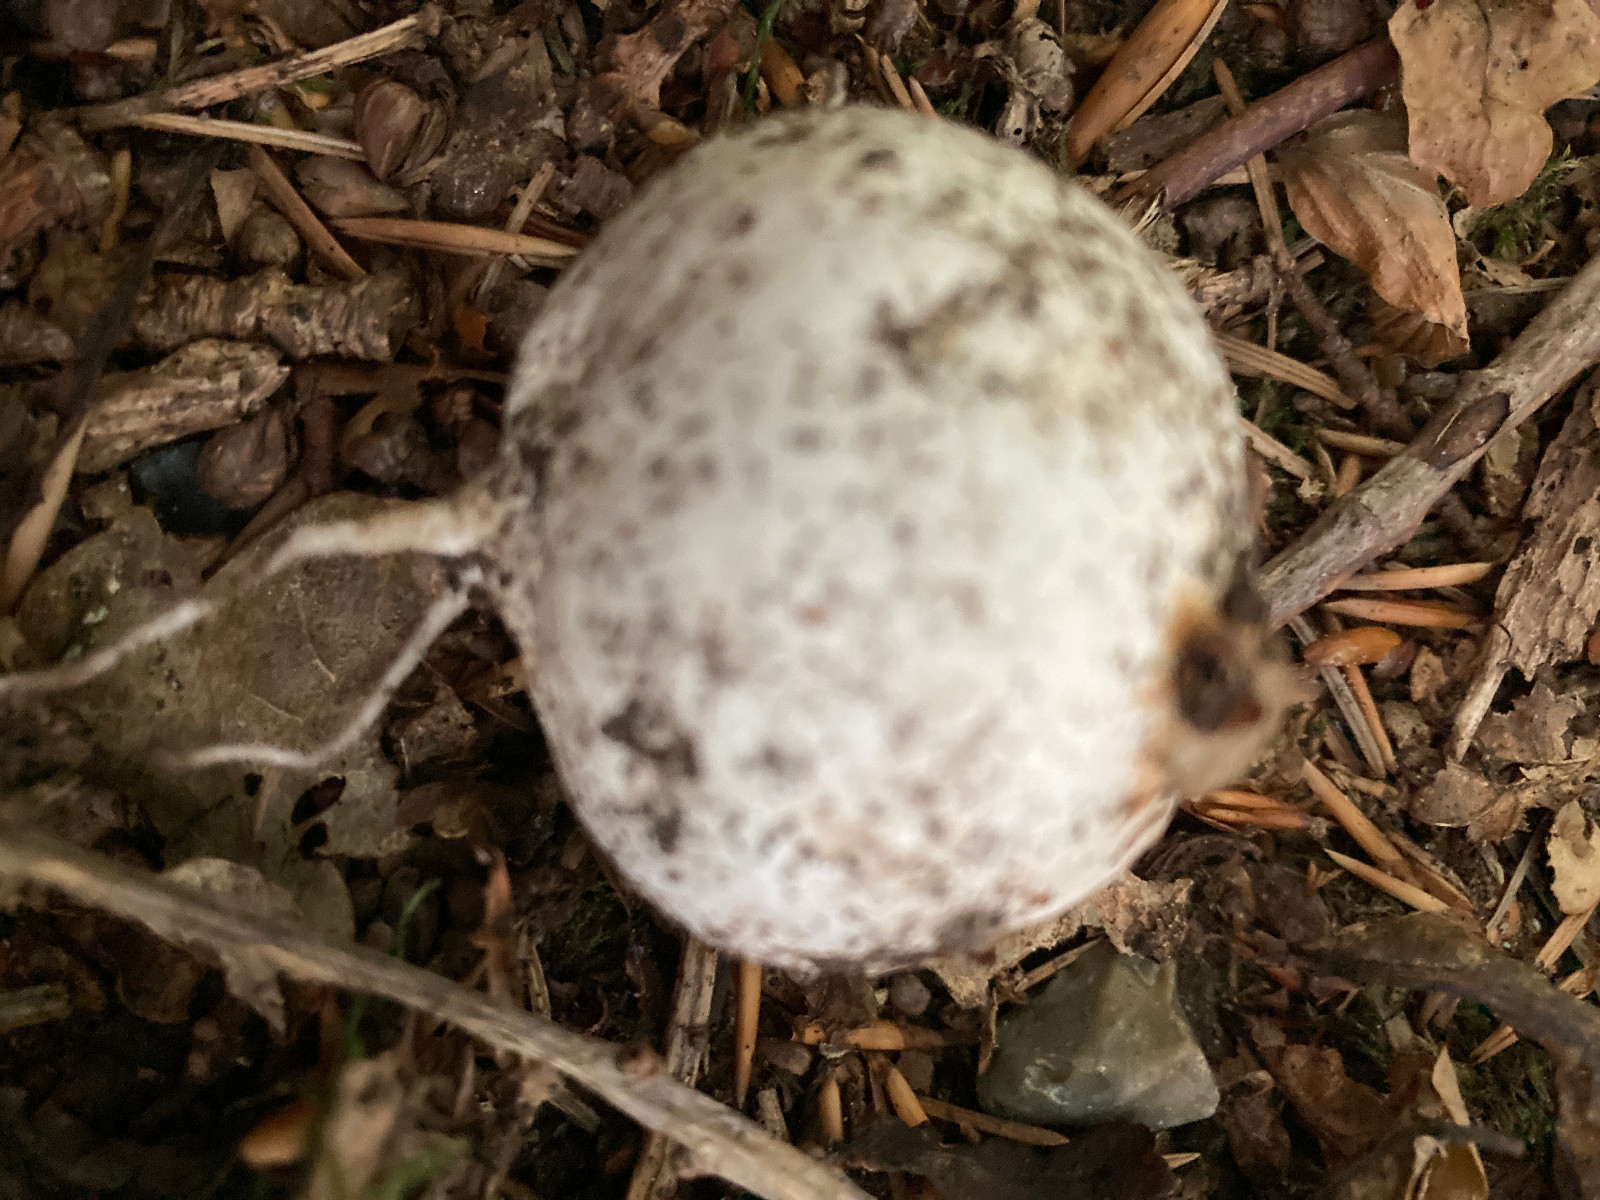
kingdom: Fungi
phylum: Basidiomycota
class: Agaricomycetes
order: Phallales
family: Phallaceae
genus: Phallus
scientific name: Phallus impudicus
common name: almindelig stinksvamp
